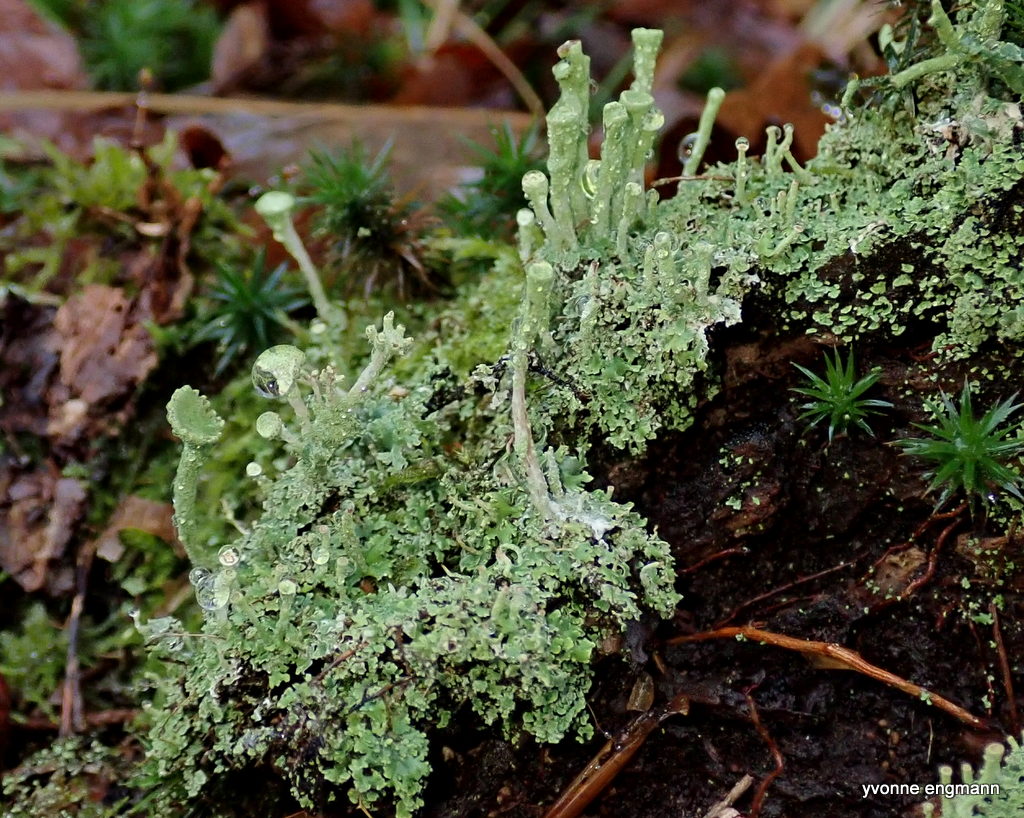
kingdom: Fungi
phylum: Ascomycota
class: Lecanoromycetes
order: Lecanorales
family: Cladoniaceae
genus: Cladonia
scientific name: Cladonia fimbriata
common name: bleggrøn bægerlav
